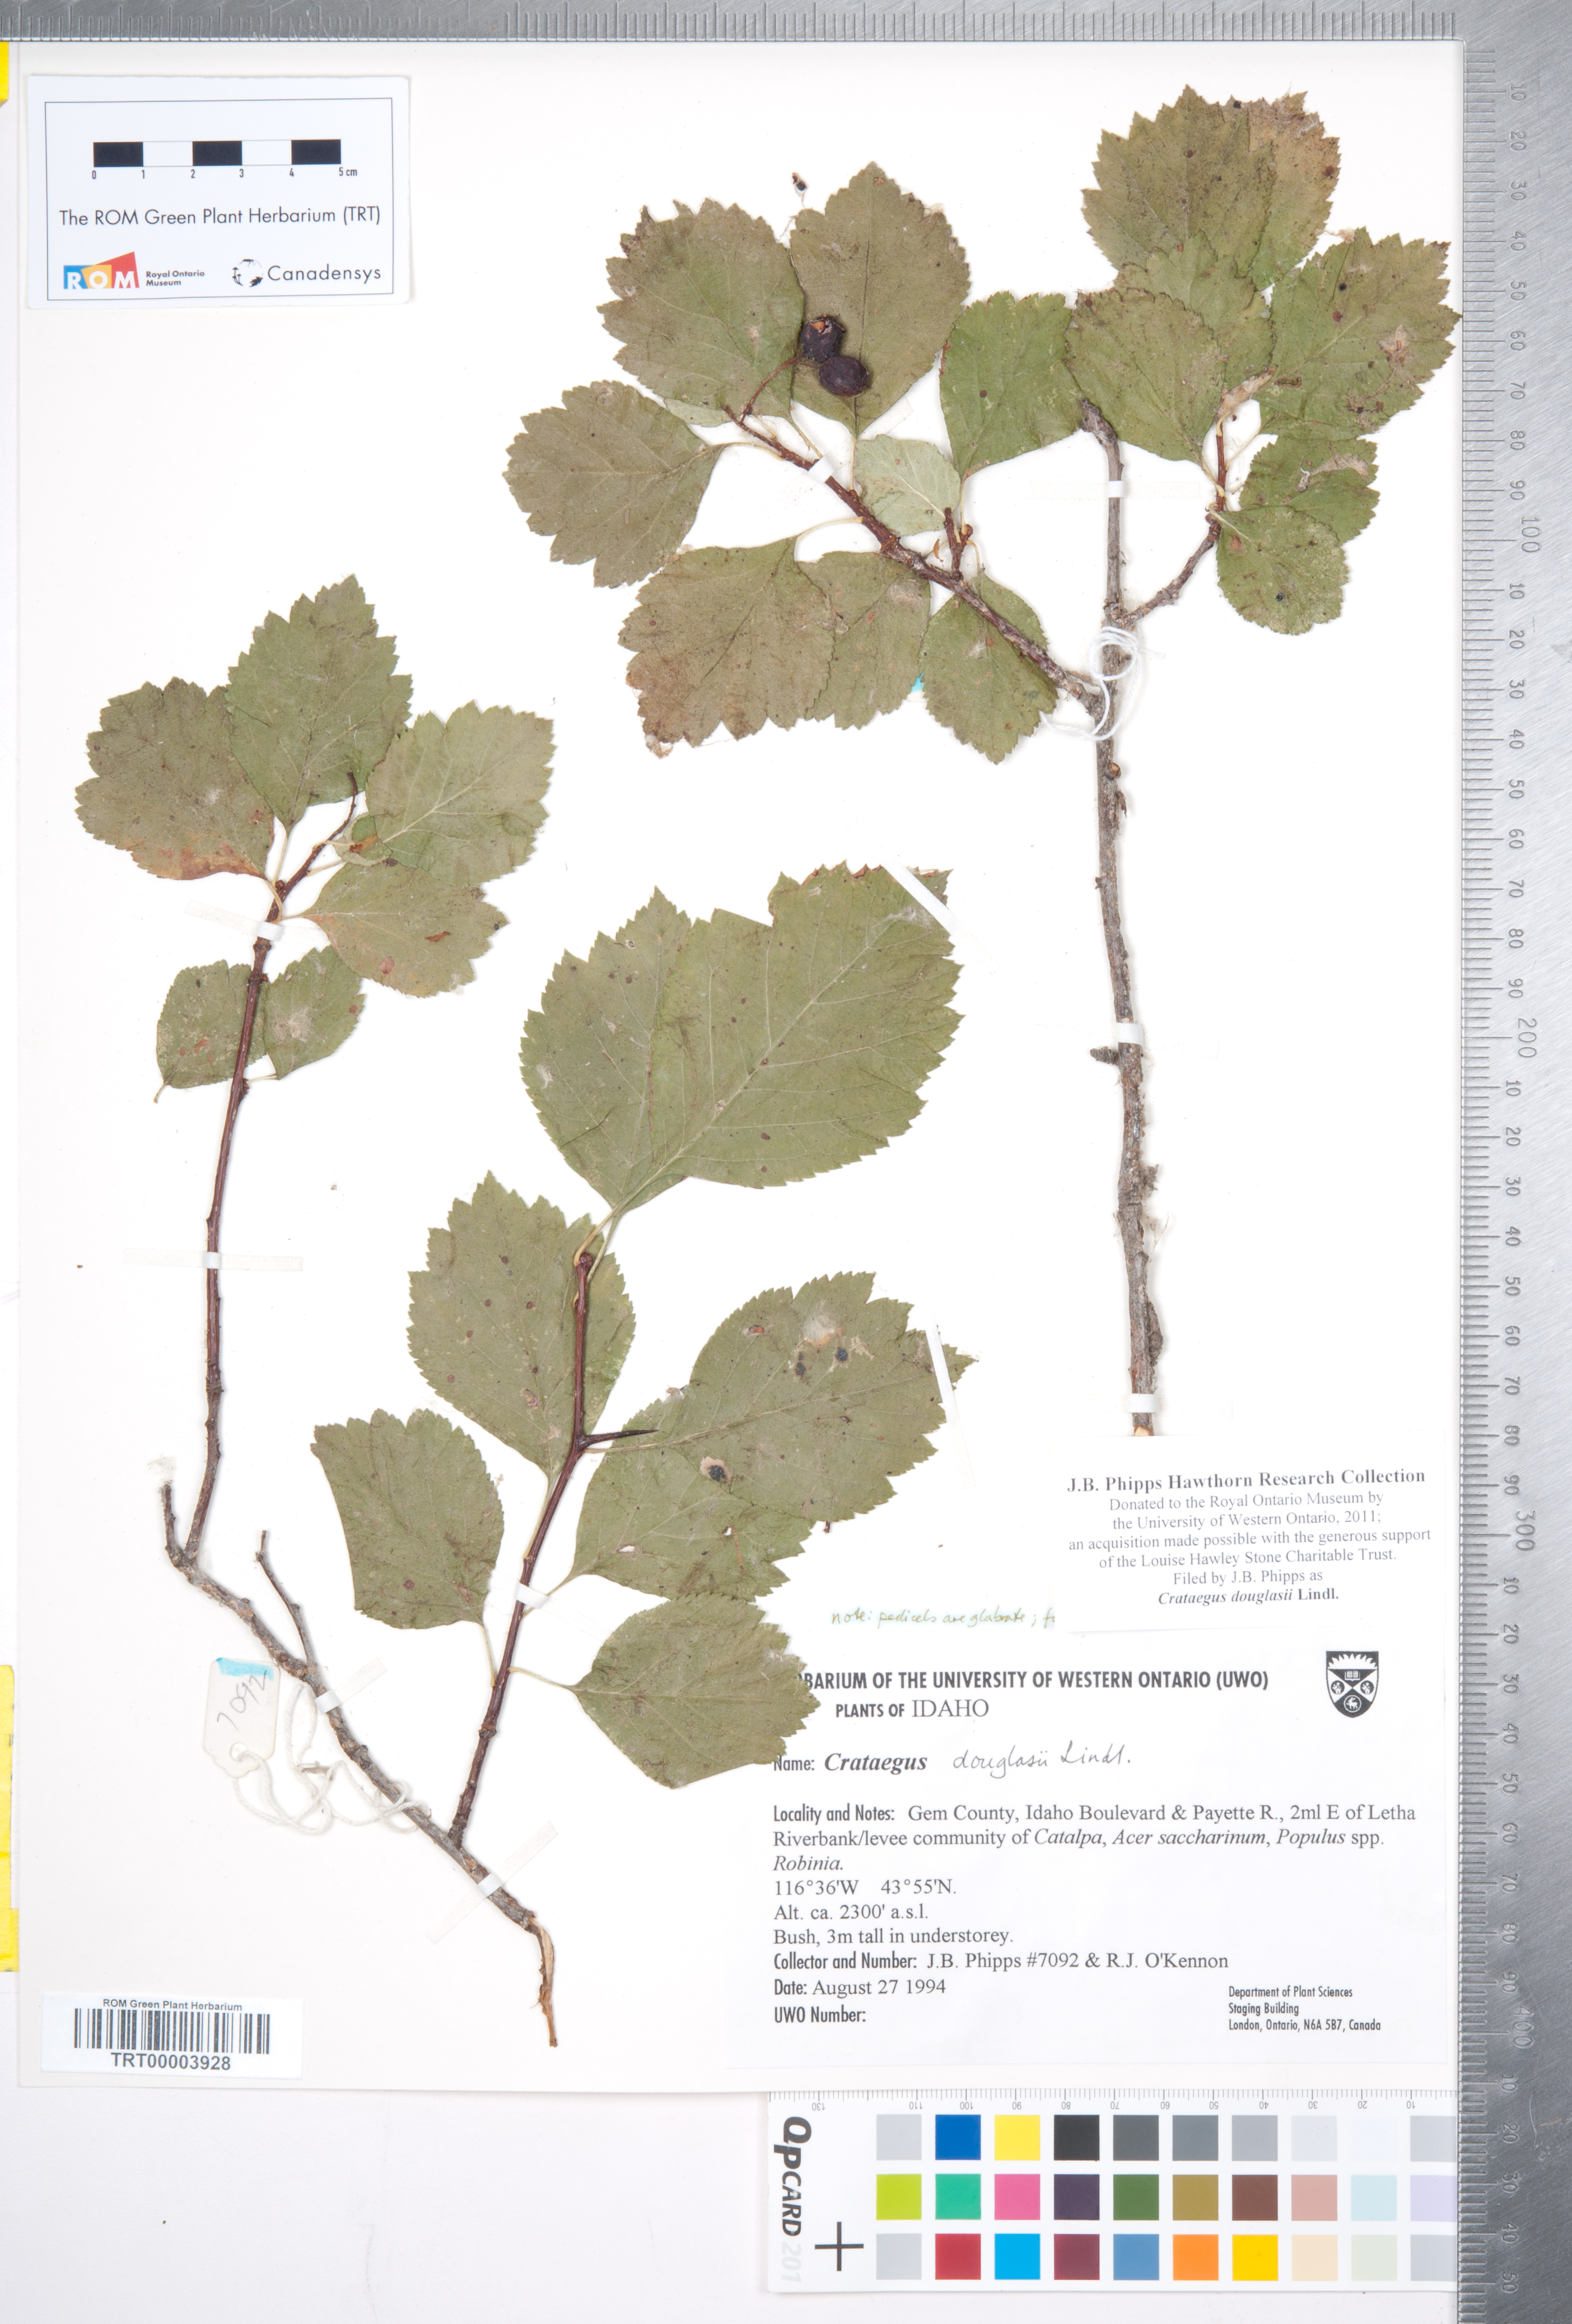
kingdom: Plantae
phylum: Tracheophyta
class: Magnoliopsida
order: Rosales
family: Rosaceae
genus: Crataegus
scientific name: Crataegus douglasii
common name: Black hawthorn
